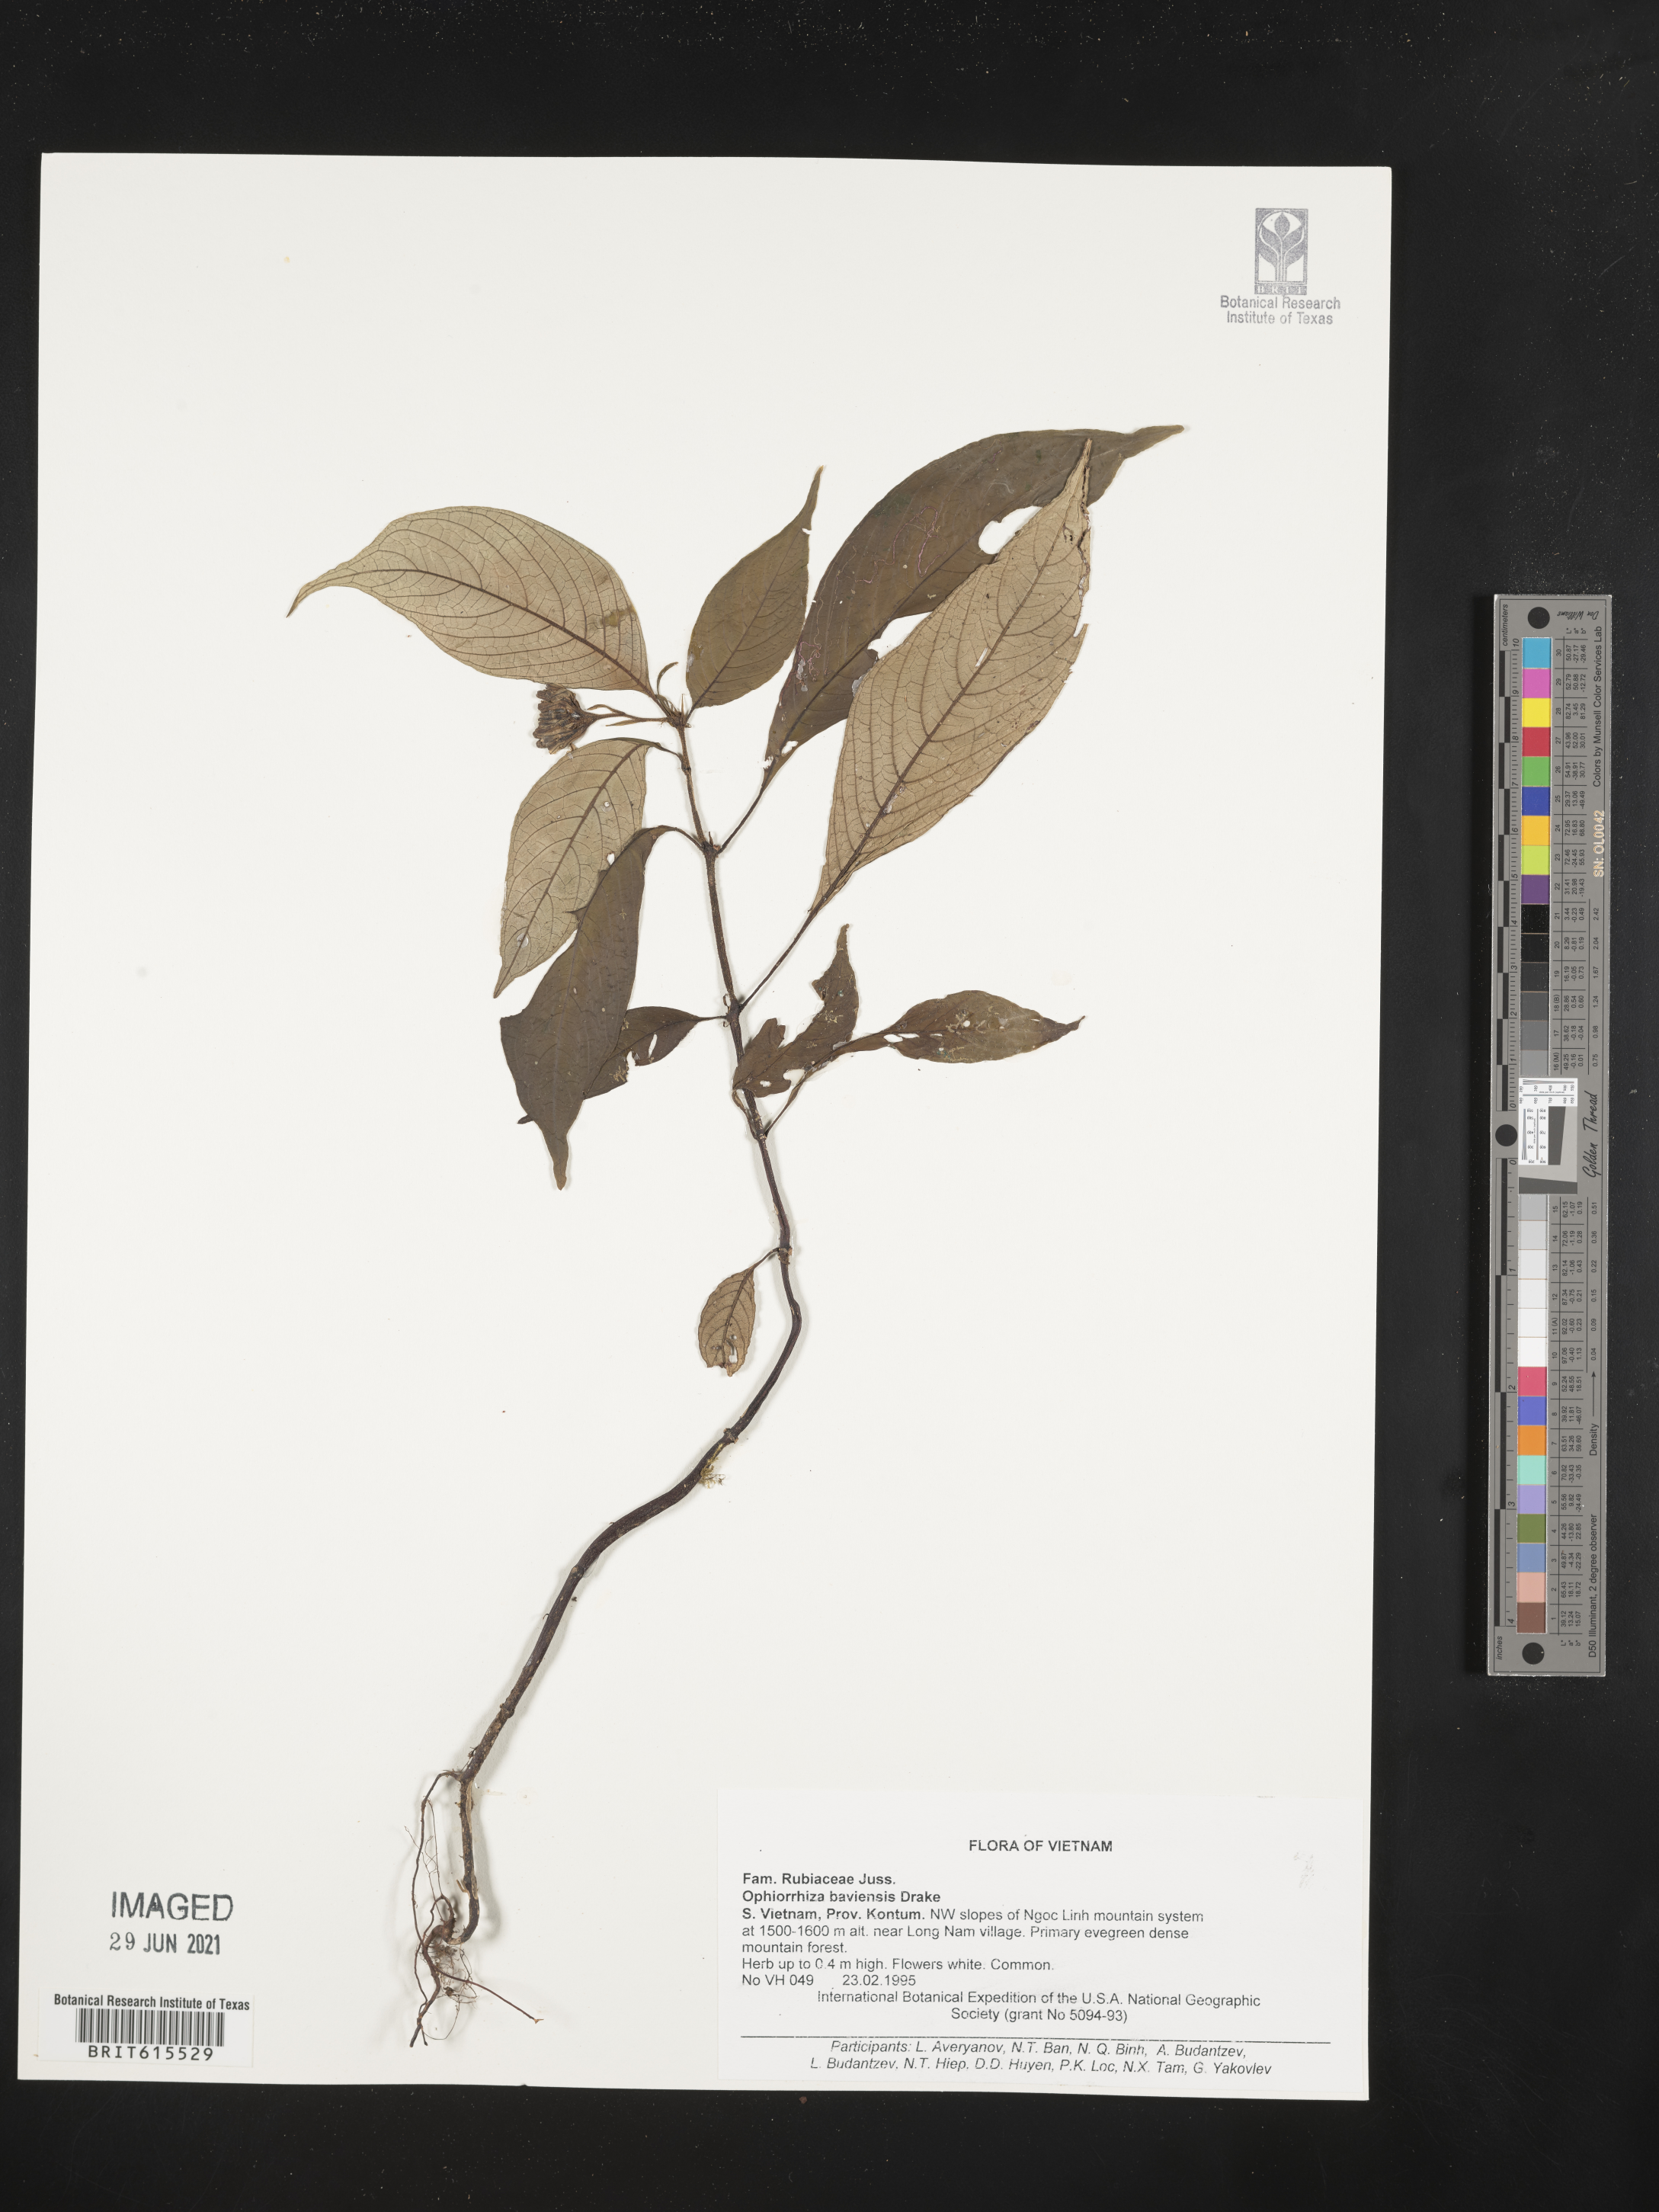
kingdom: Plantae
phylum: Tracheophyta
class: Magnoliopsida
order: Gentianales
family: Rubiaceae
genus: Ophiorrhiza
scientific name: Ophiorrhiza baviensis
